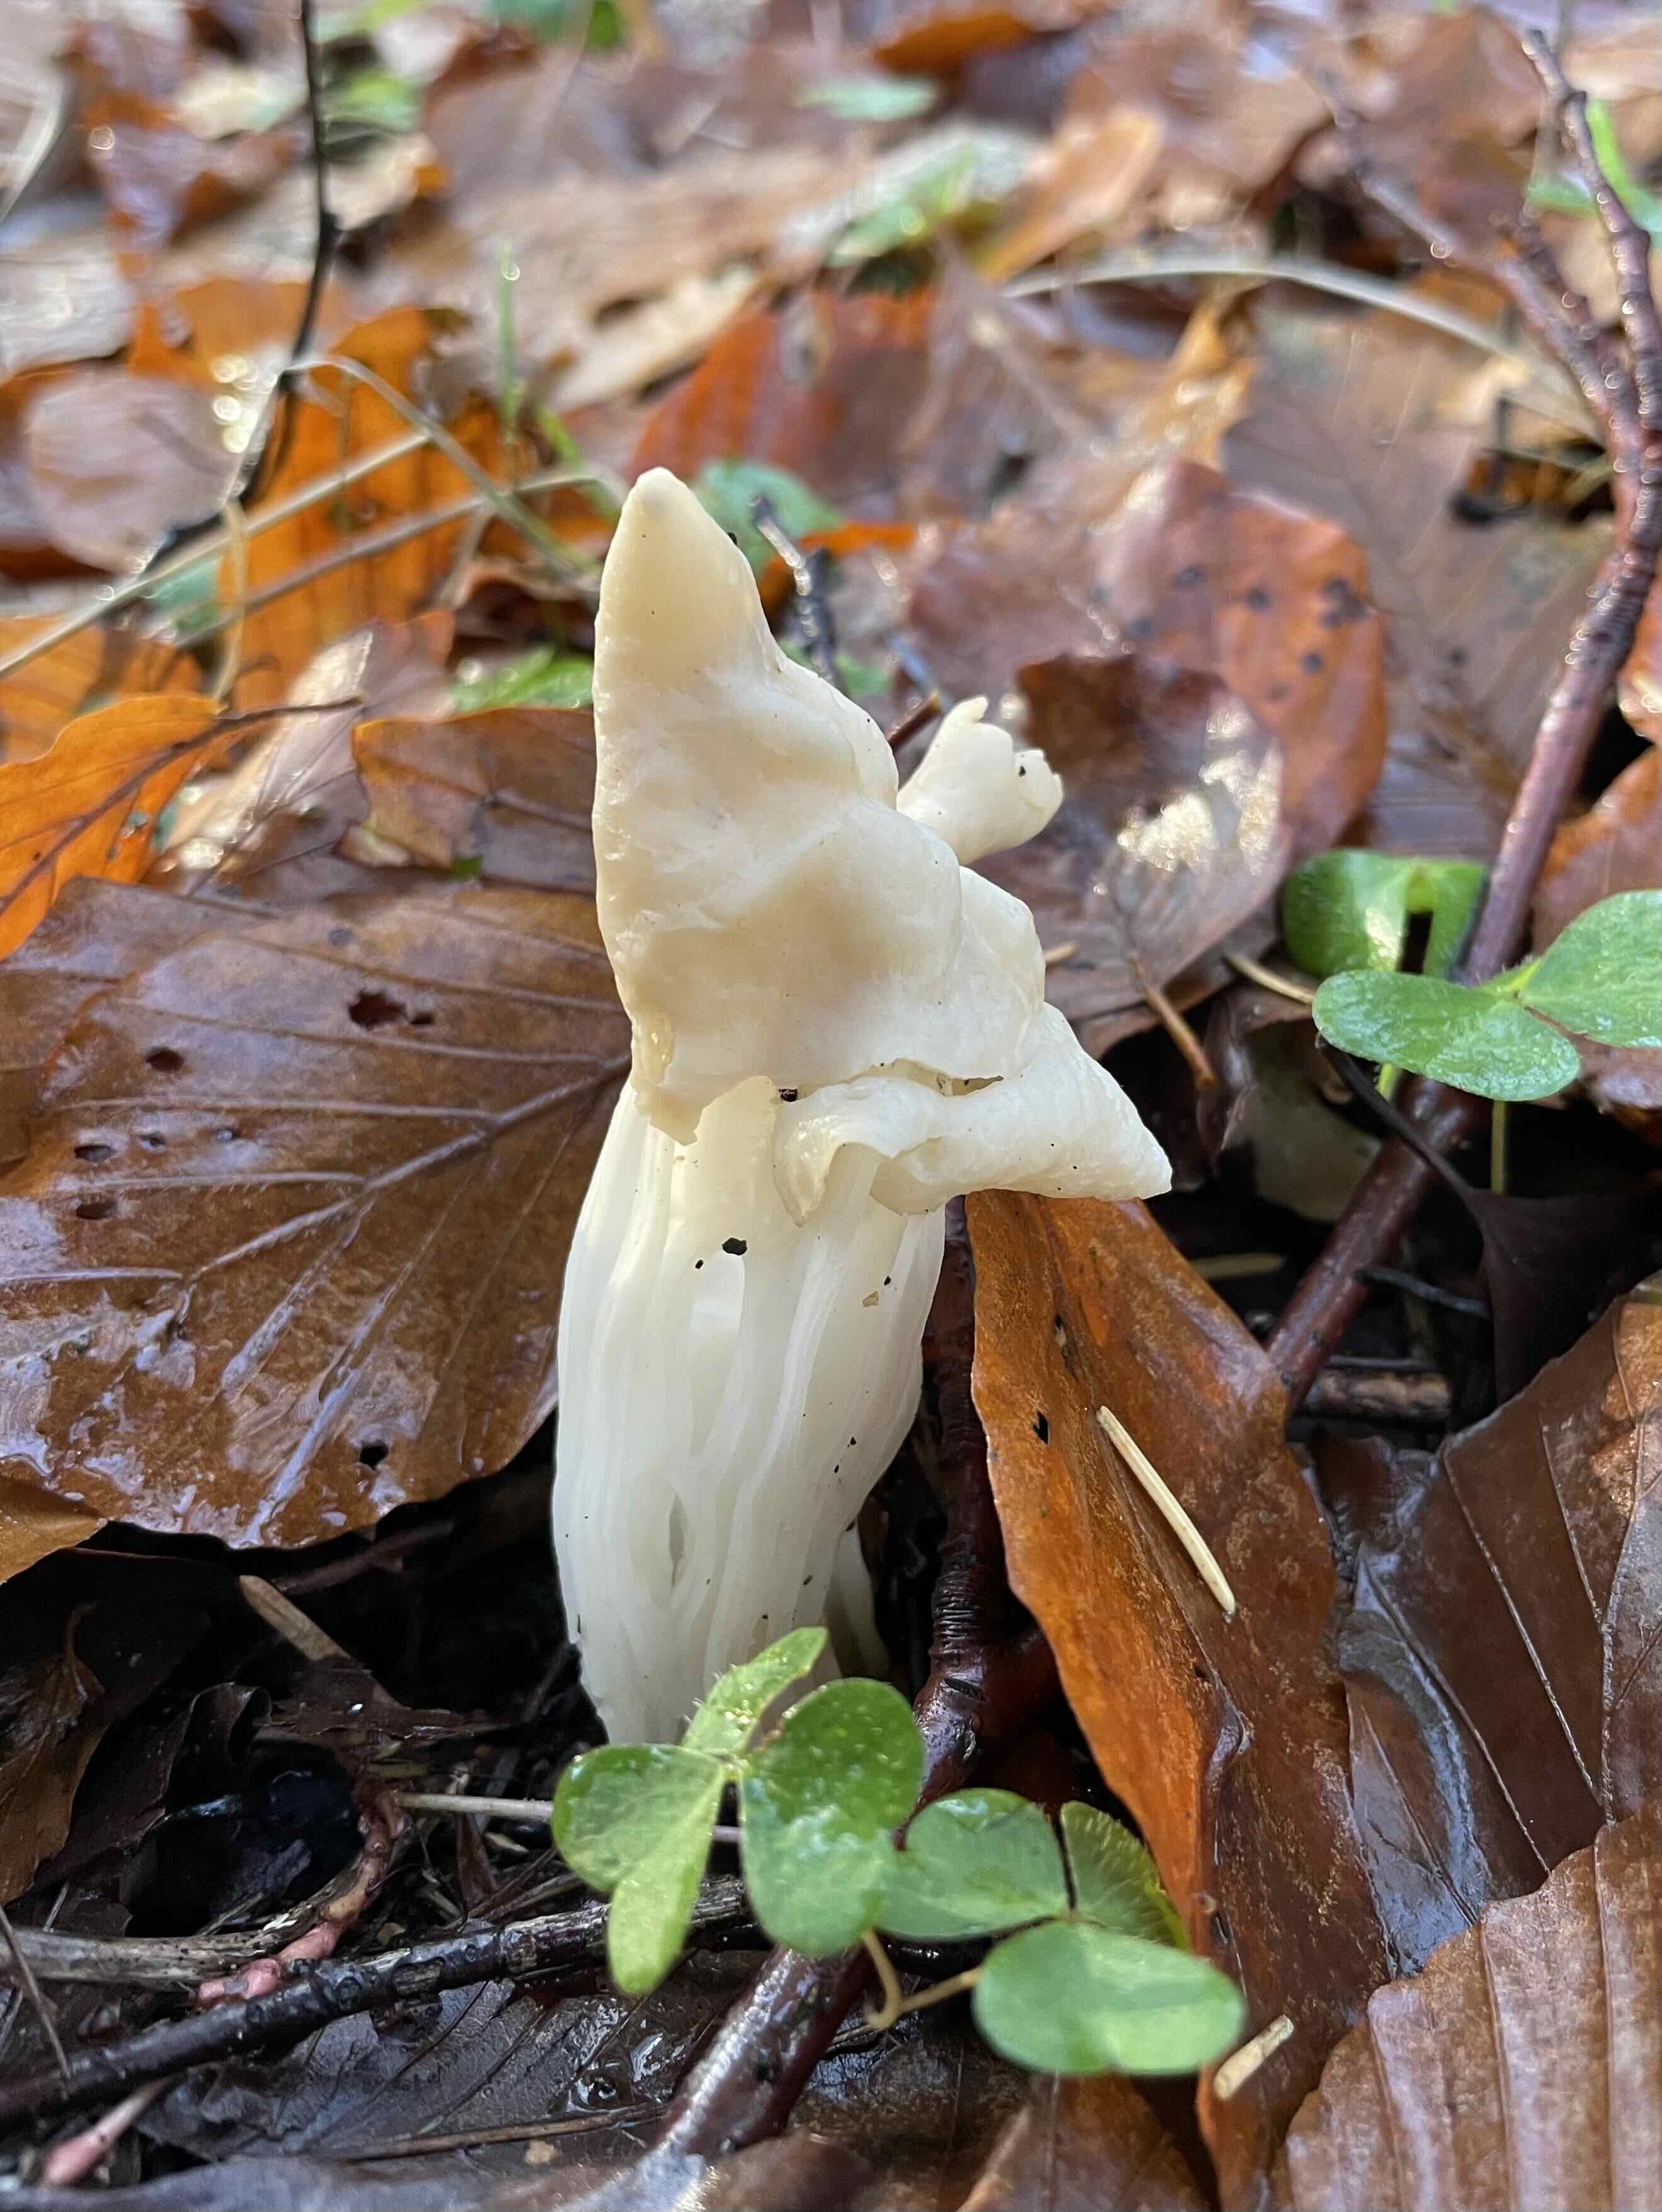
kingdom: Fungi
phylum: Ascomycota
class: Pezizomycetes
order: Pezizales
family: Helvellaceae
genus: Helvella
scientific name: Helvella crispa
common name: kruset foldhat
